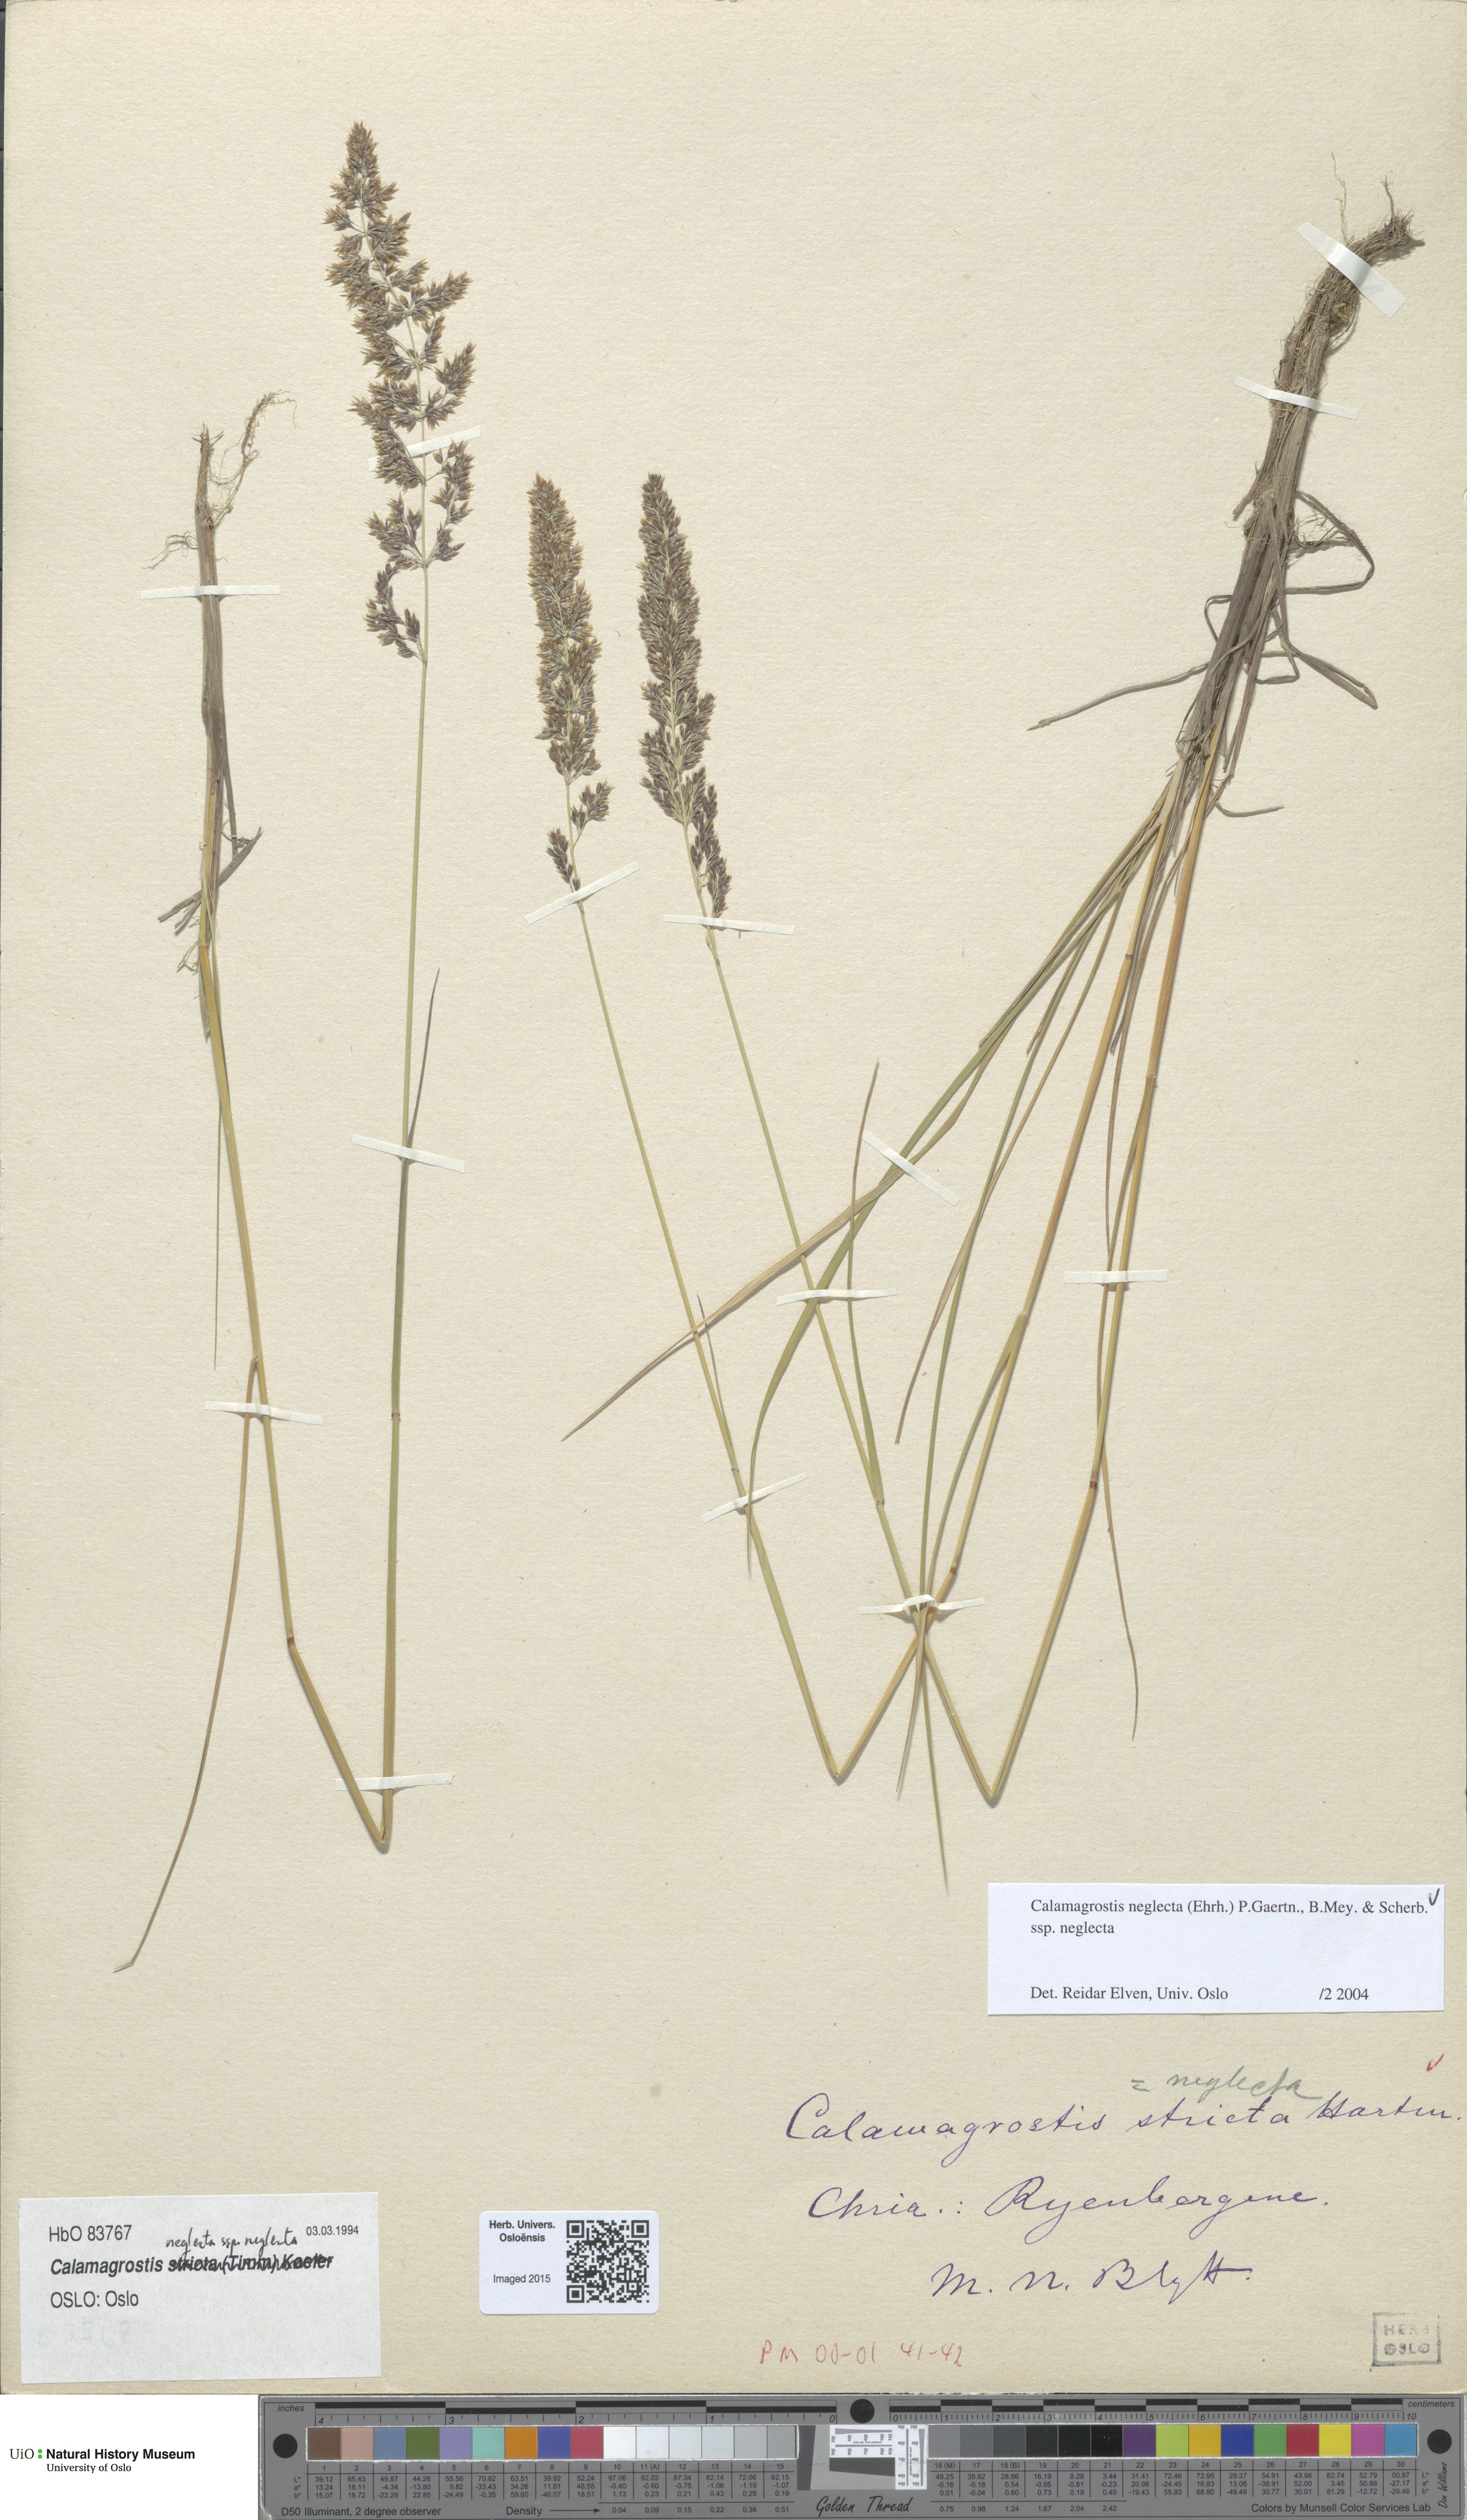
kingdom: Plantae
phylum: Tracheophyta
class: Liliopsida
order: Poales
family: Poaceae
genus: Achnatherum
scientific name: Achnatherum calamagrostis
